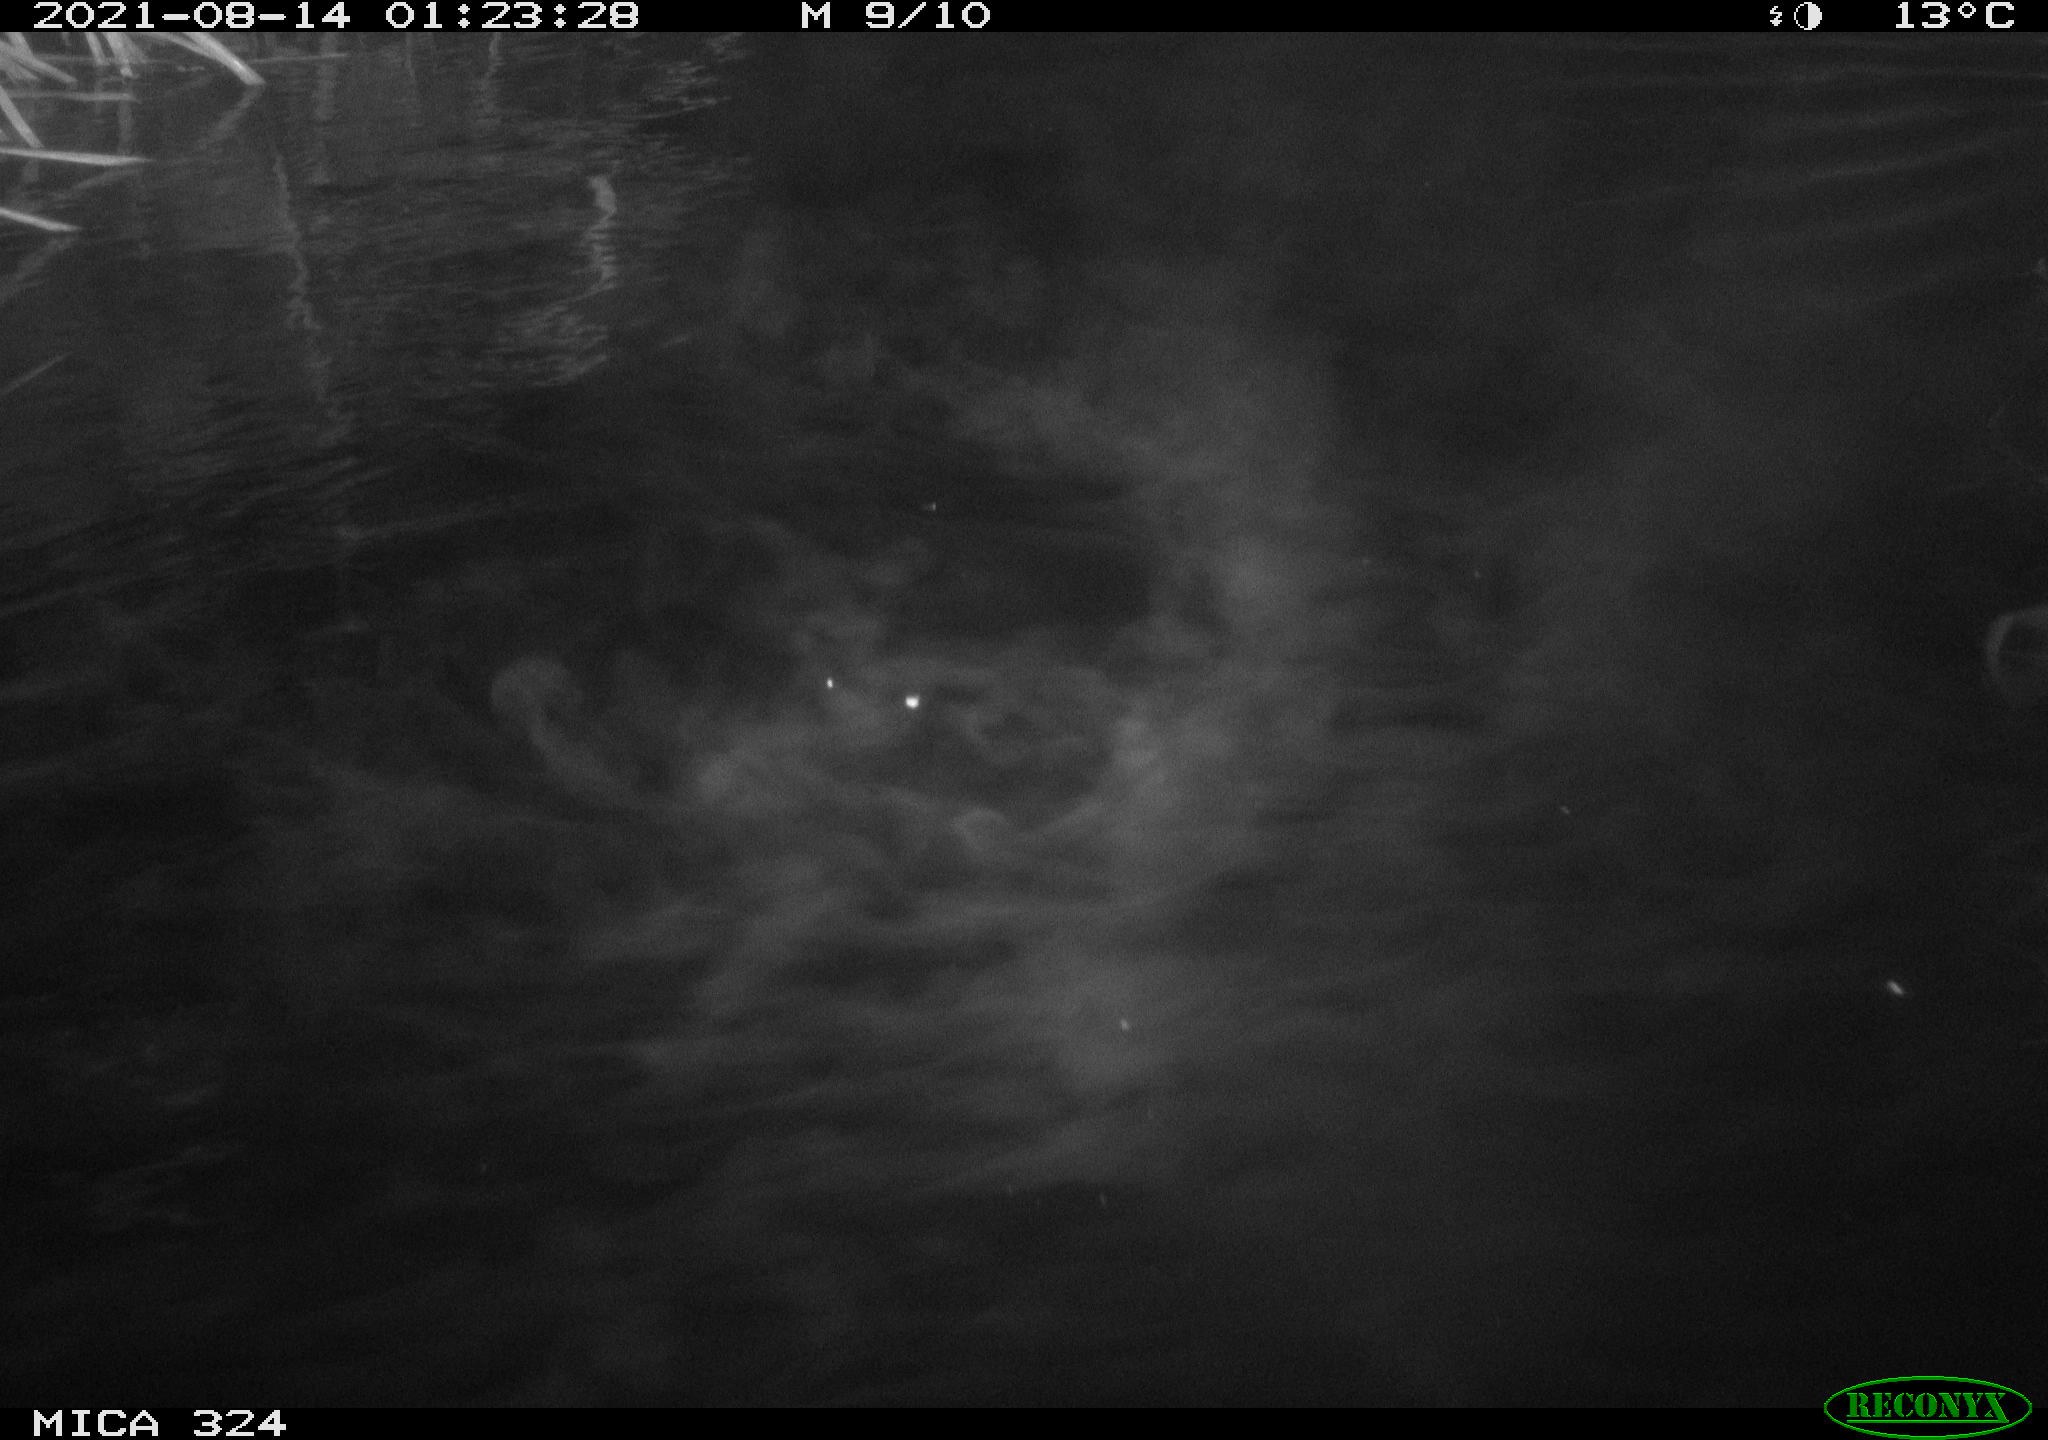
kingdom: Animalia
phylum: Chordata
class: Mammalia
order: Rodentia
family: Cricetidae
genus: Ondatra
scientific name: Ondatra zibethicus
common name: Muskrat
